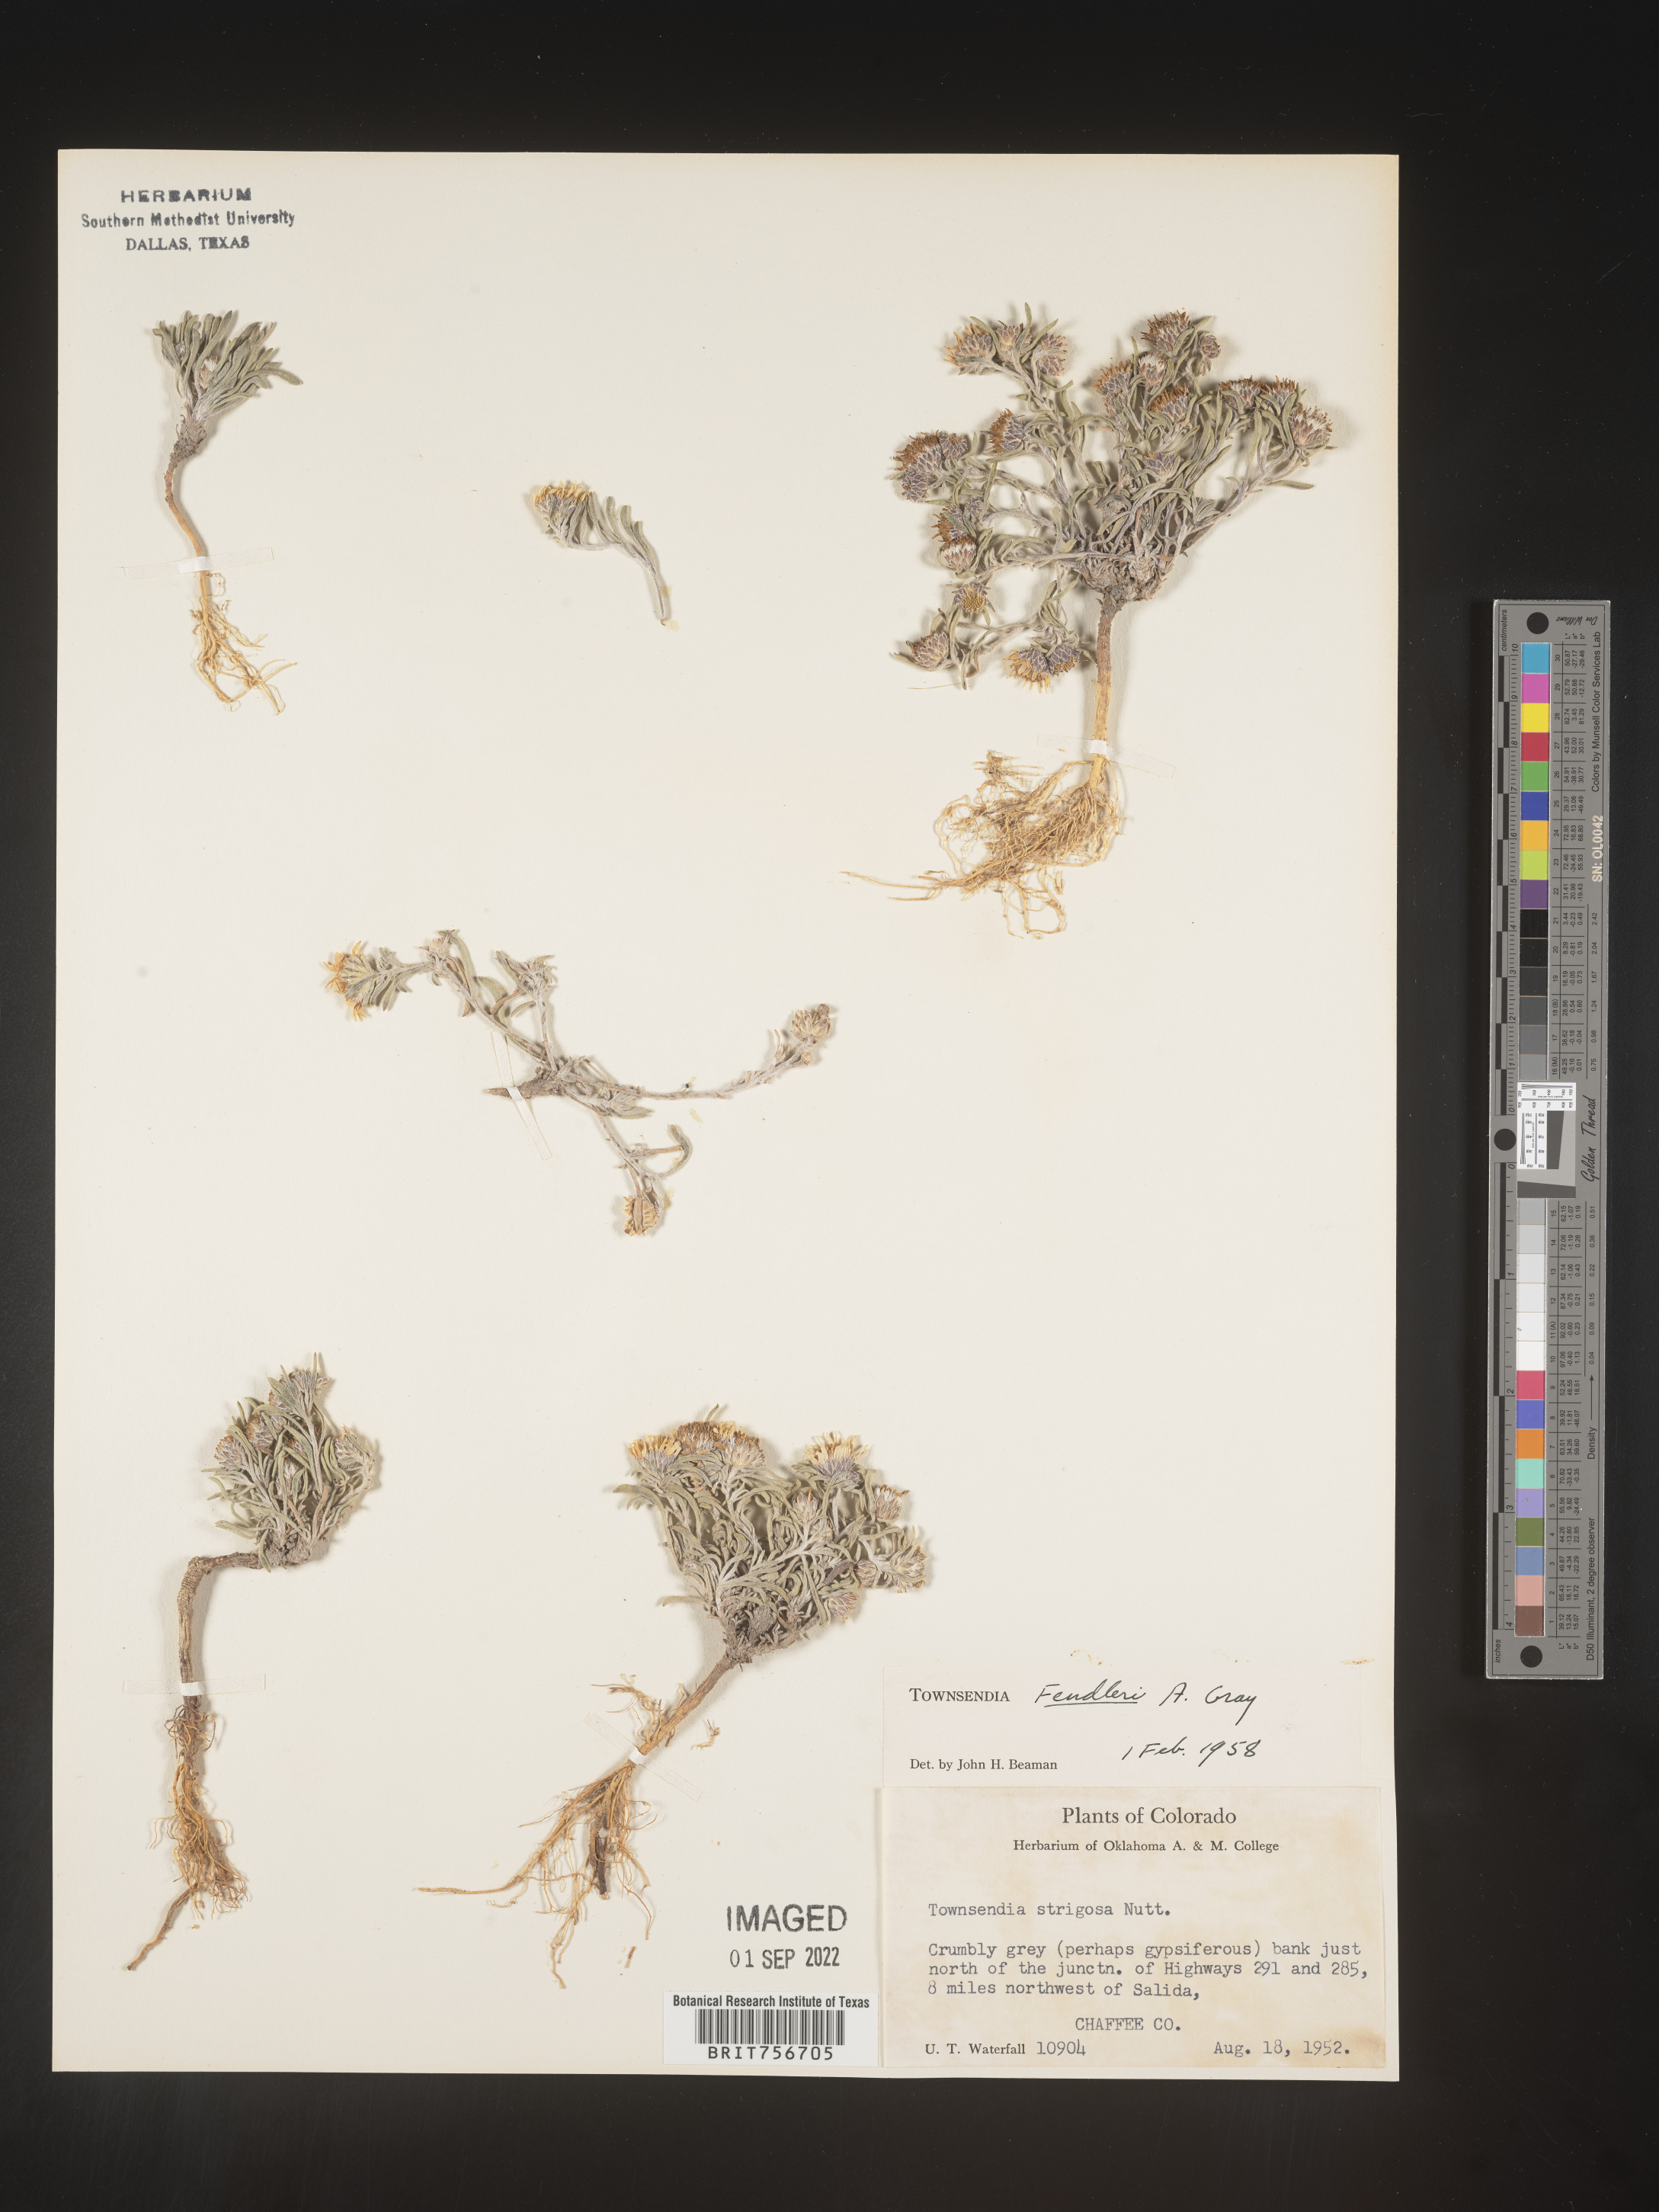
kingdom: Plantae
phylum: Tracheophyta
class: Magnoliopsida
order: Asterales
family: Asteraceae
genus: Townsendia
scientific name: Townsendia fendleri
